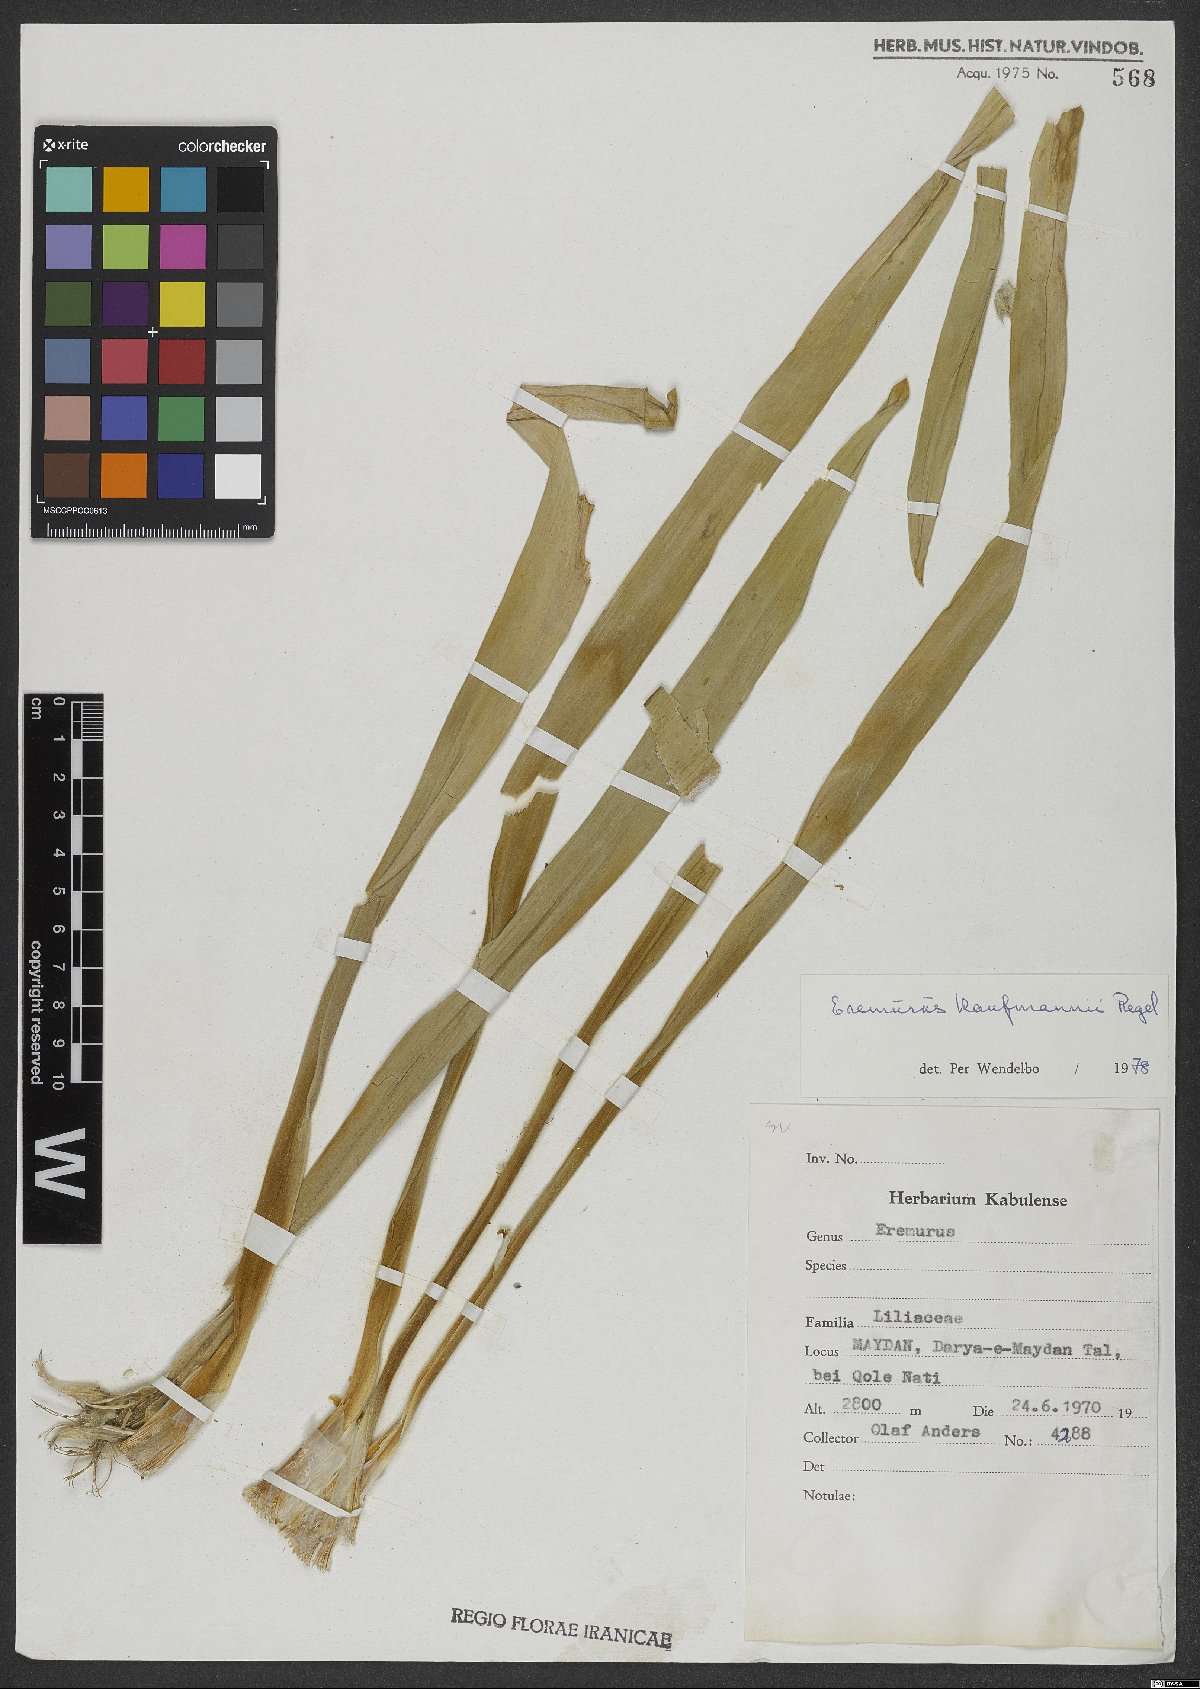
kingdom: Plantae
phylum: Tracheophyta
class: Liliopsida
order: Asparagales
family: Asphodelaceae
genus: Eremurus
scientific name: Eremurus kaufmannii
